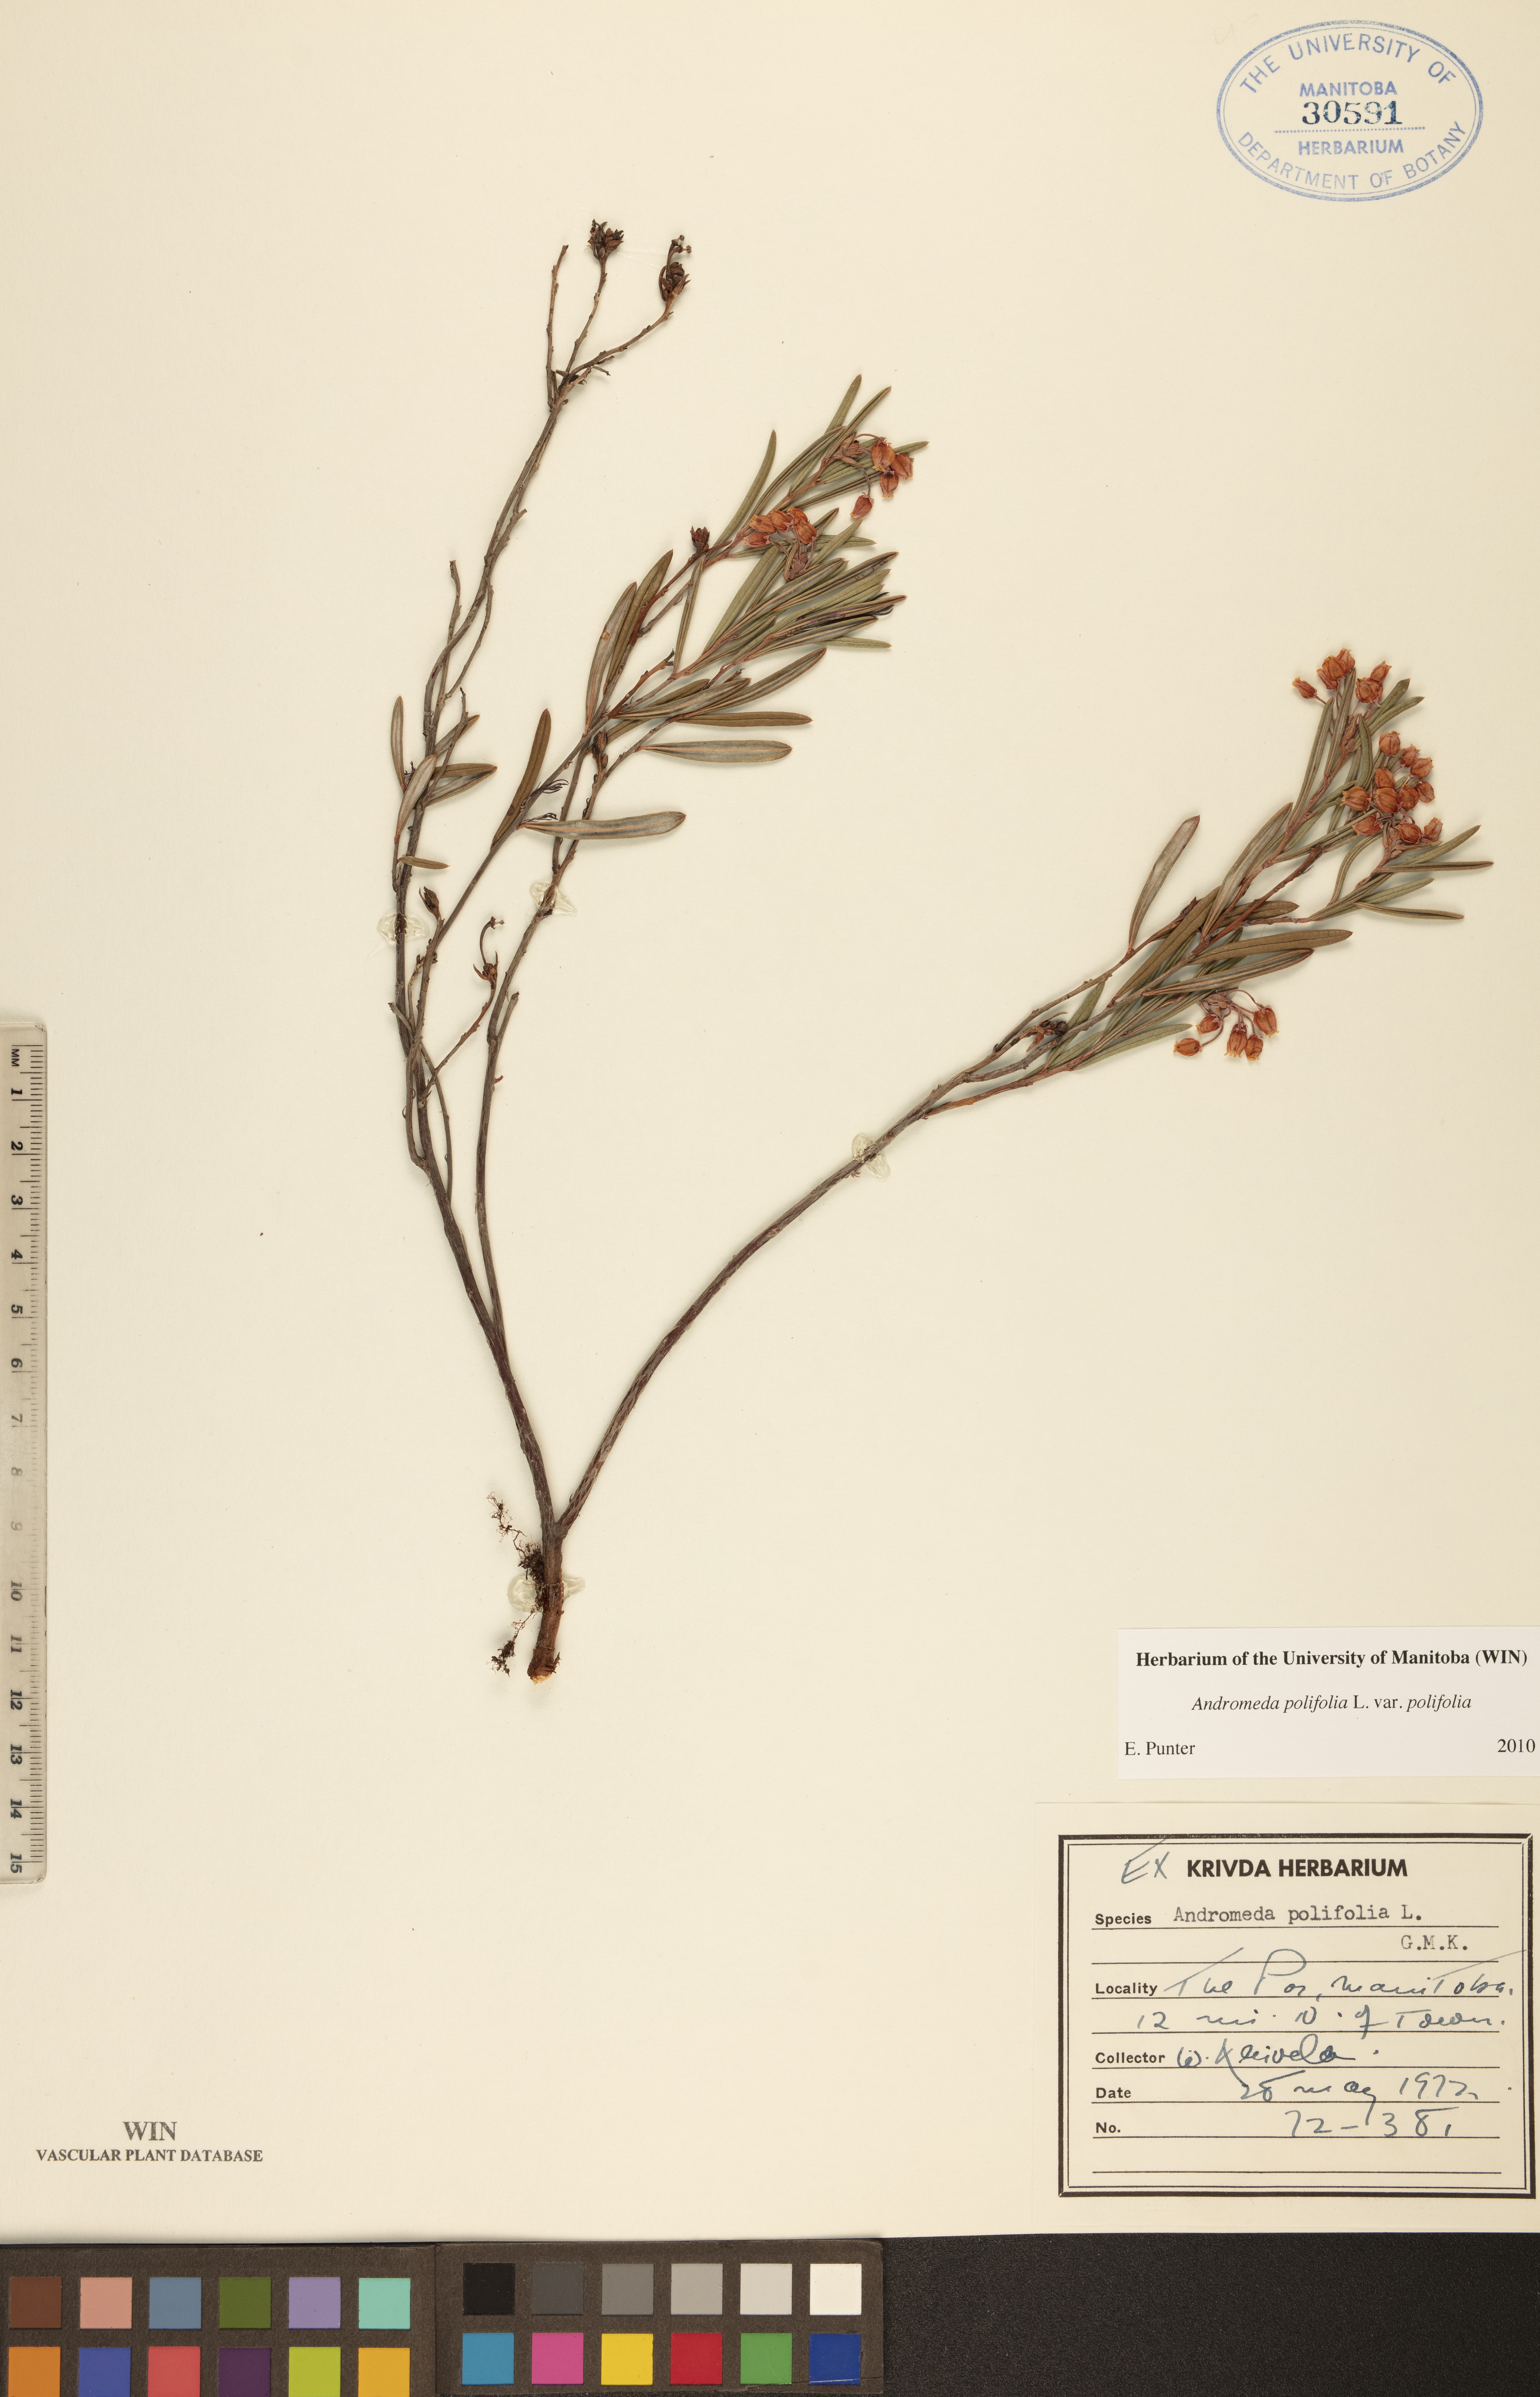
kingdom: Plantae
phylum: Tracheophyta
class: Magnoliopsida
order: Ericales
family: Ericaceae
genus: Andromeda
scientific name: Andromeda polifolia
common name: Bog-rosemary
